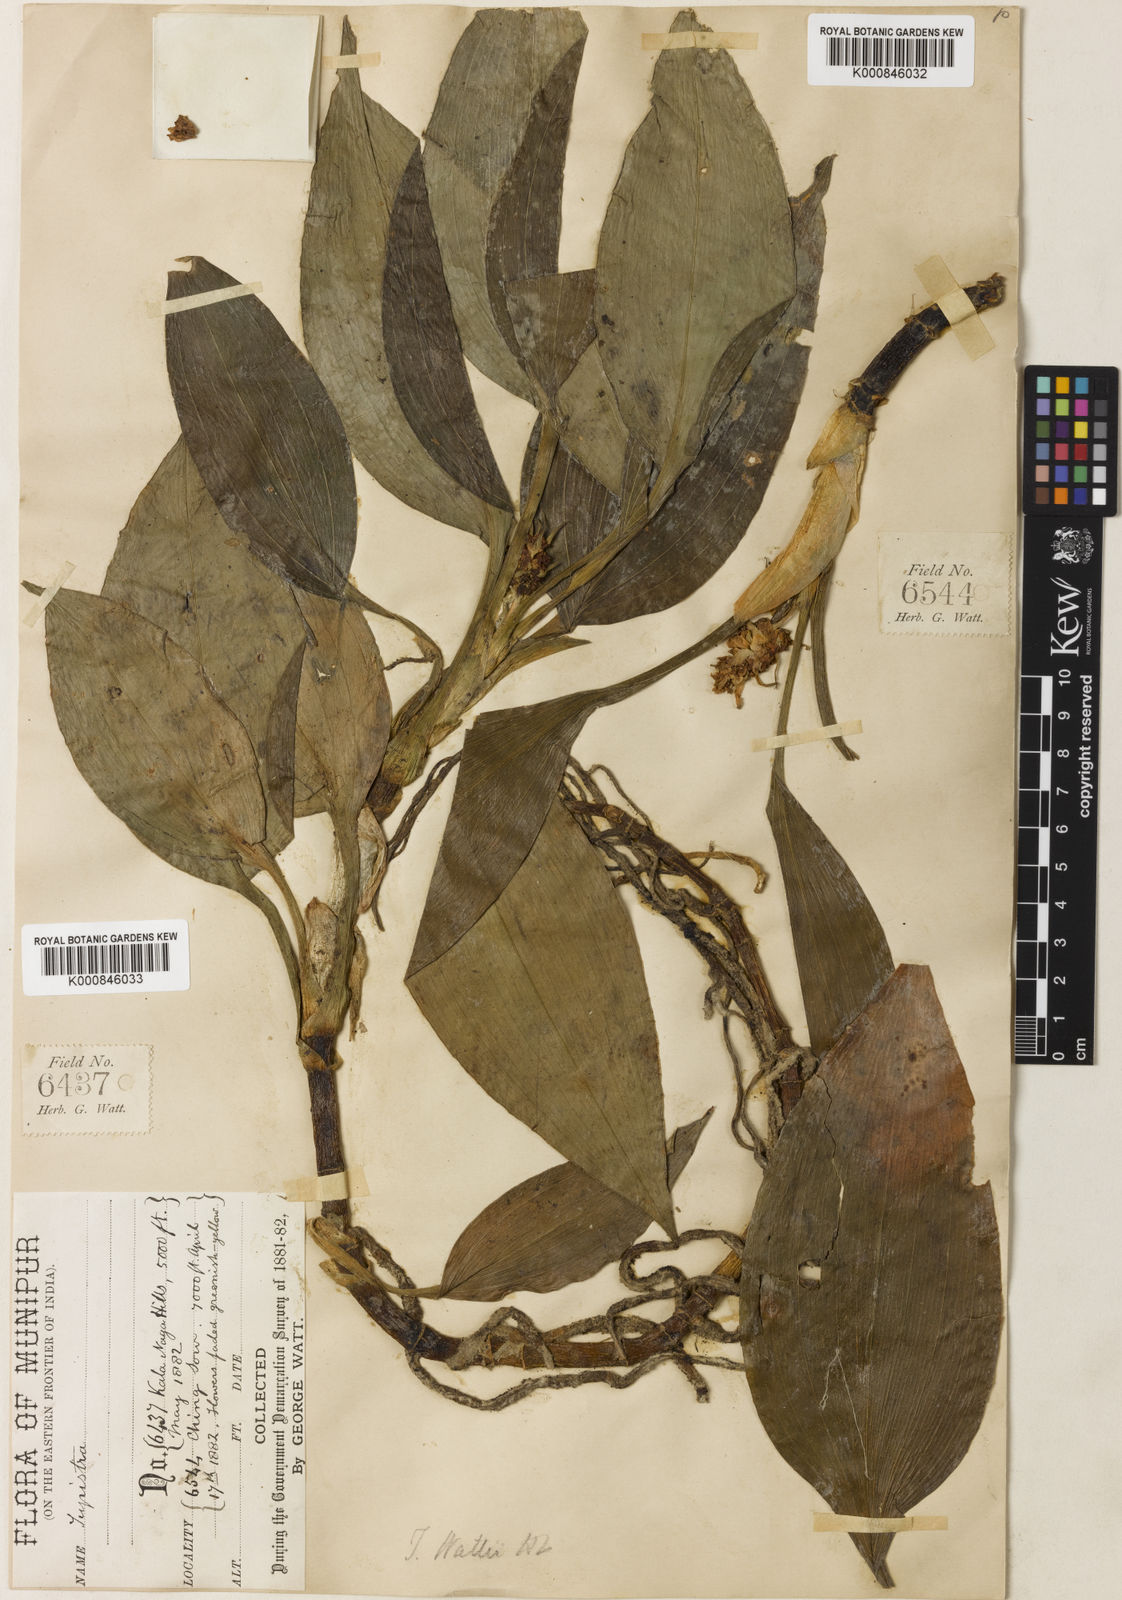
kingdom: Plantae
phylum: Tracheophyta
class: Liliopsida
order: Asparagales
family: Asparagaceae
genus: Rohdea
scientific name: Rohdea wattii
